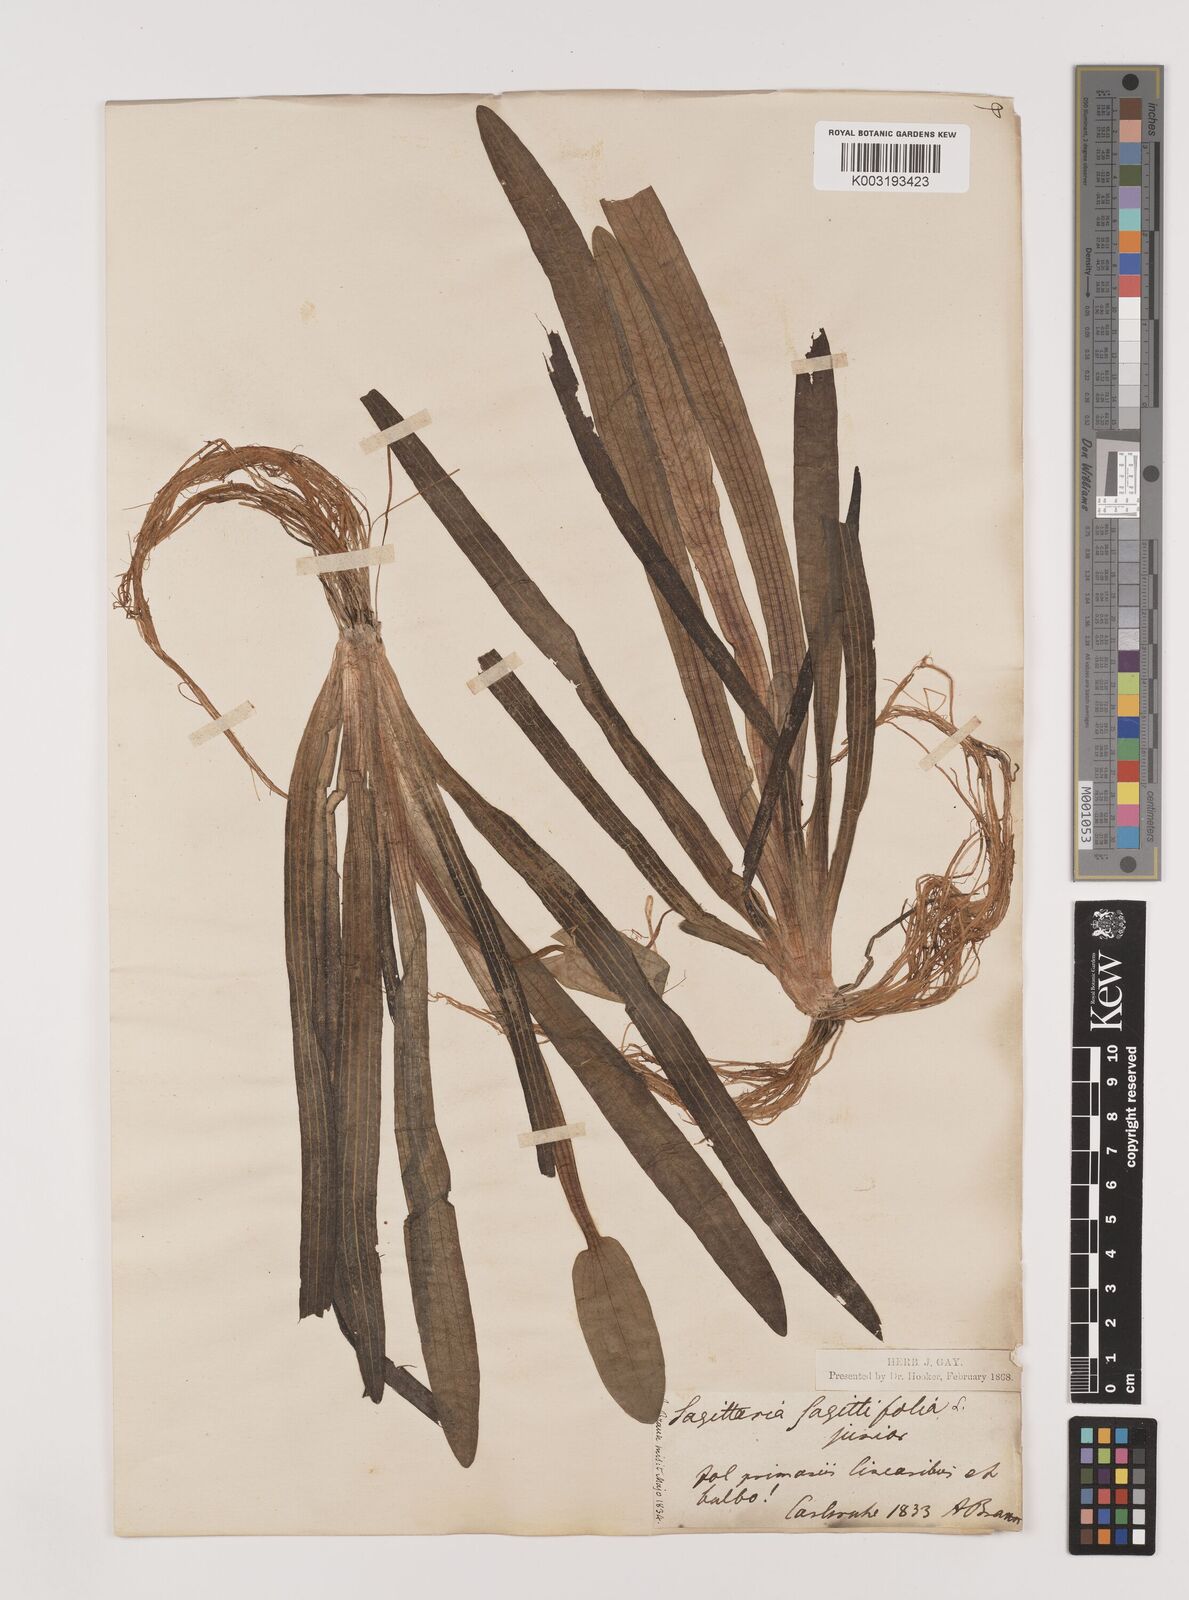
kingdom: Plantae
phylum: Tracheophyta
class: Liliopsida
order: Alismatales
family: Alismataceae
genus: Sagittaria
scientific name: Sagittaria sagittifolia
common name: Arrowhead
